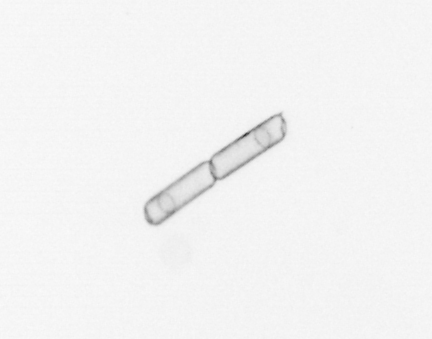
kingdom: Chromista
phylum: Ochrophyta
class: Bacillariophyceae
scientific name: Bacillariophyceae
